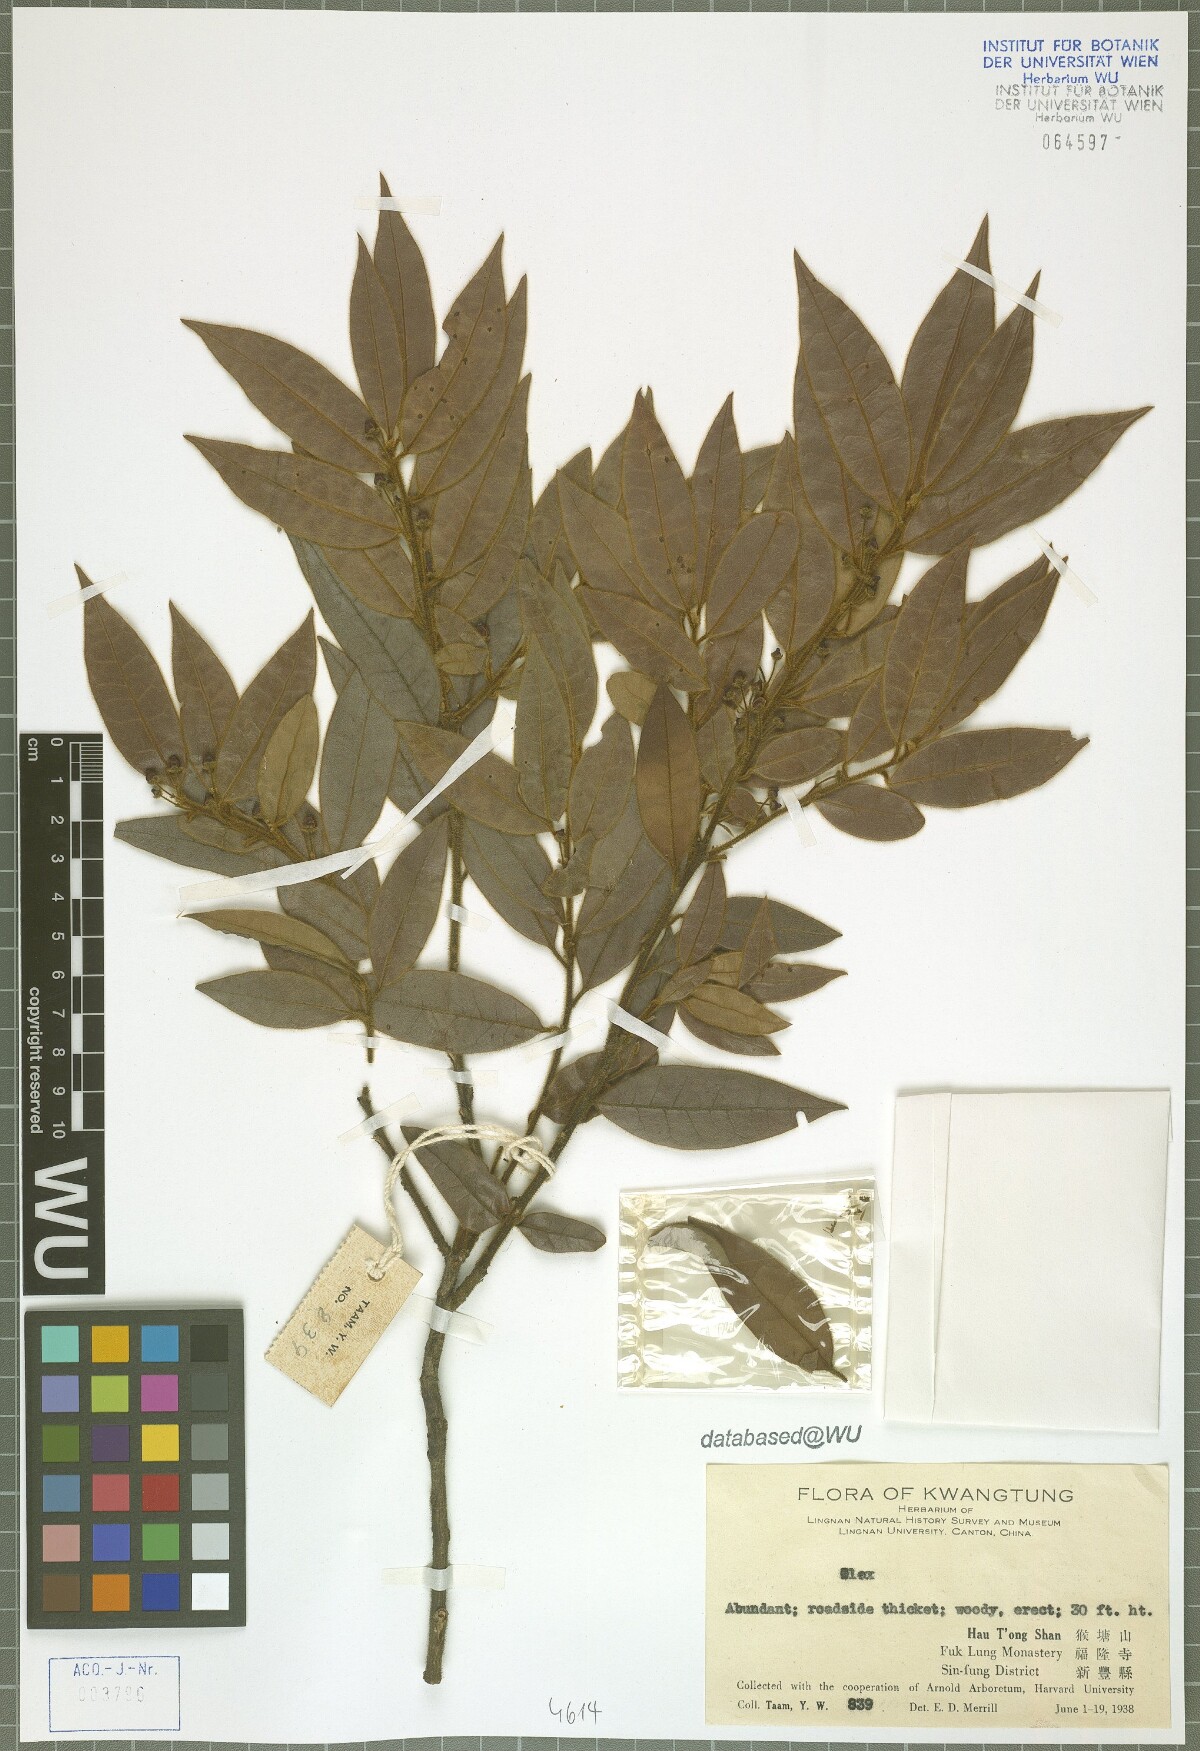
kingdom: Plantae
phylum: Tracheophyta
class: Magnoliopsida
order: Aquifoliales
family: Aquifoliaceae
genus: Ilex
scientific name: Ilex
